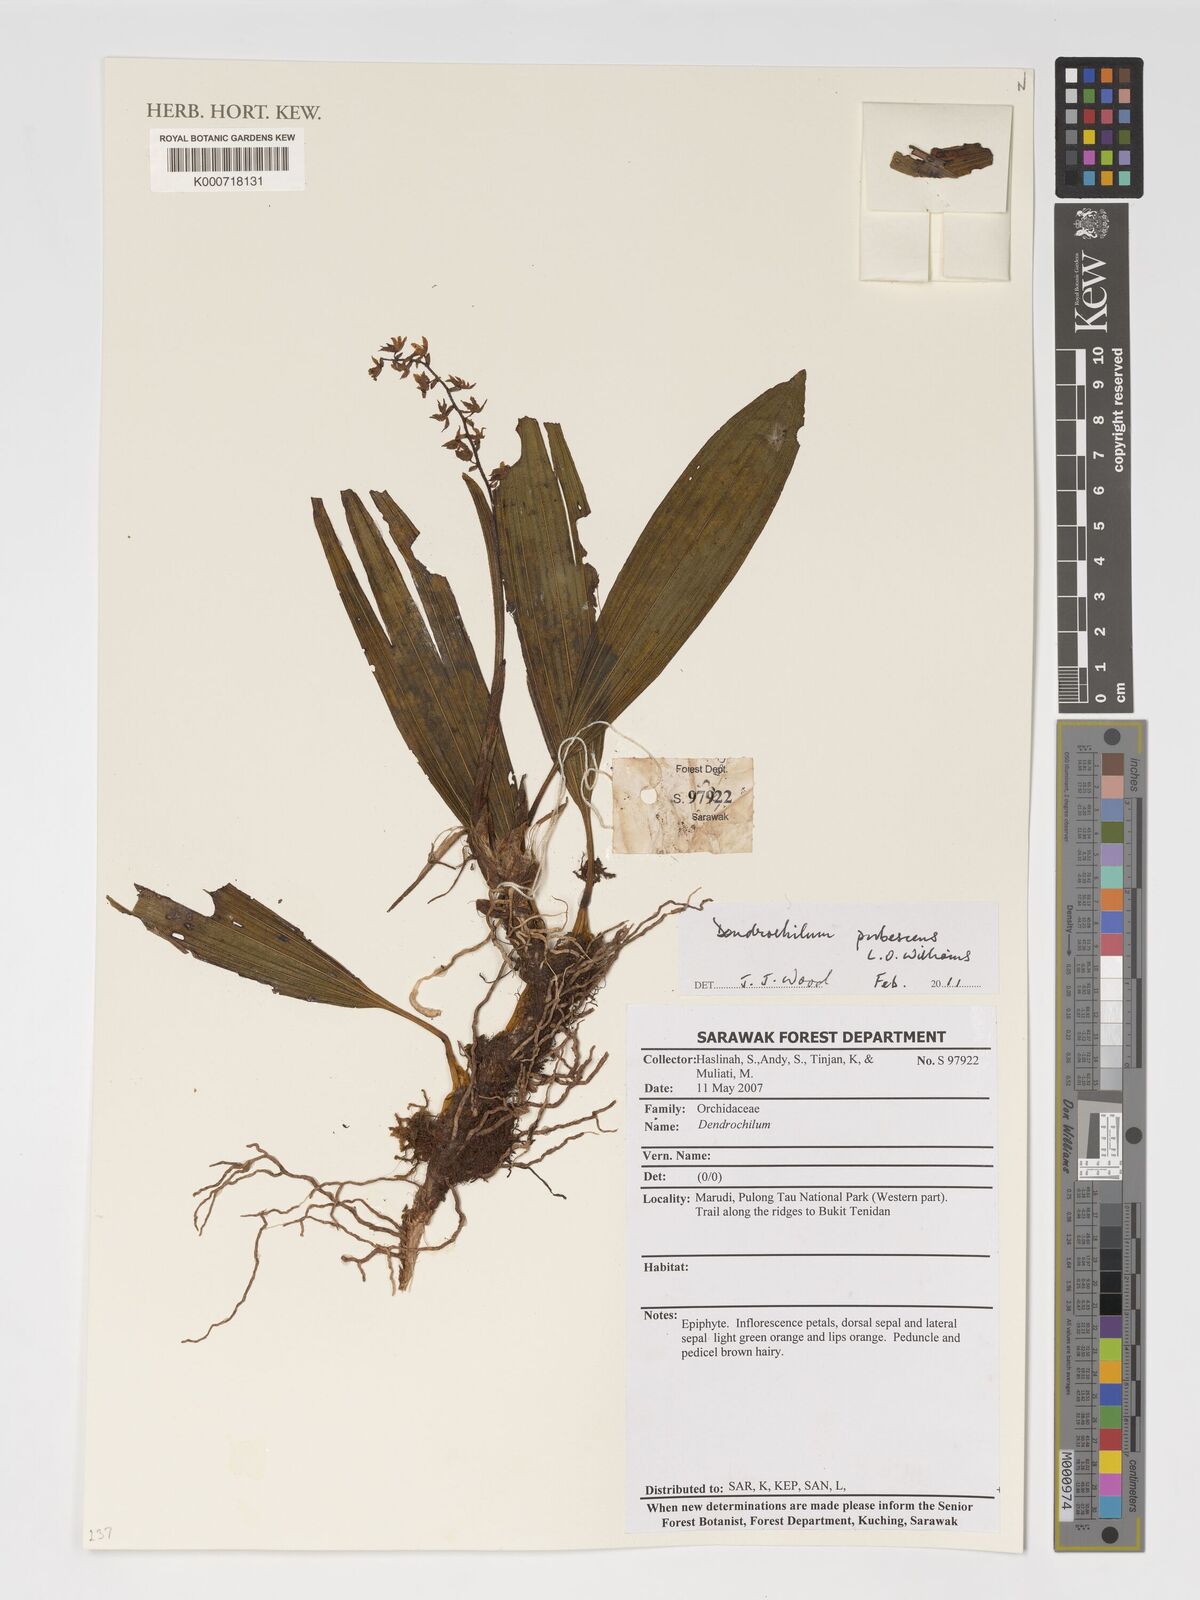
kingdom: Plantae
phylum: Tracheophyta
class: Liliopsida
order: Asparagales
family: Orchidaceae
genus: Coelogyne
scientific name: Coelogyne pubescens
